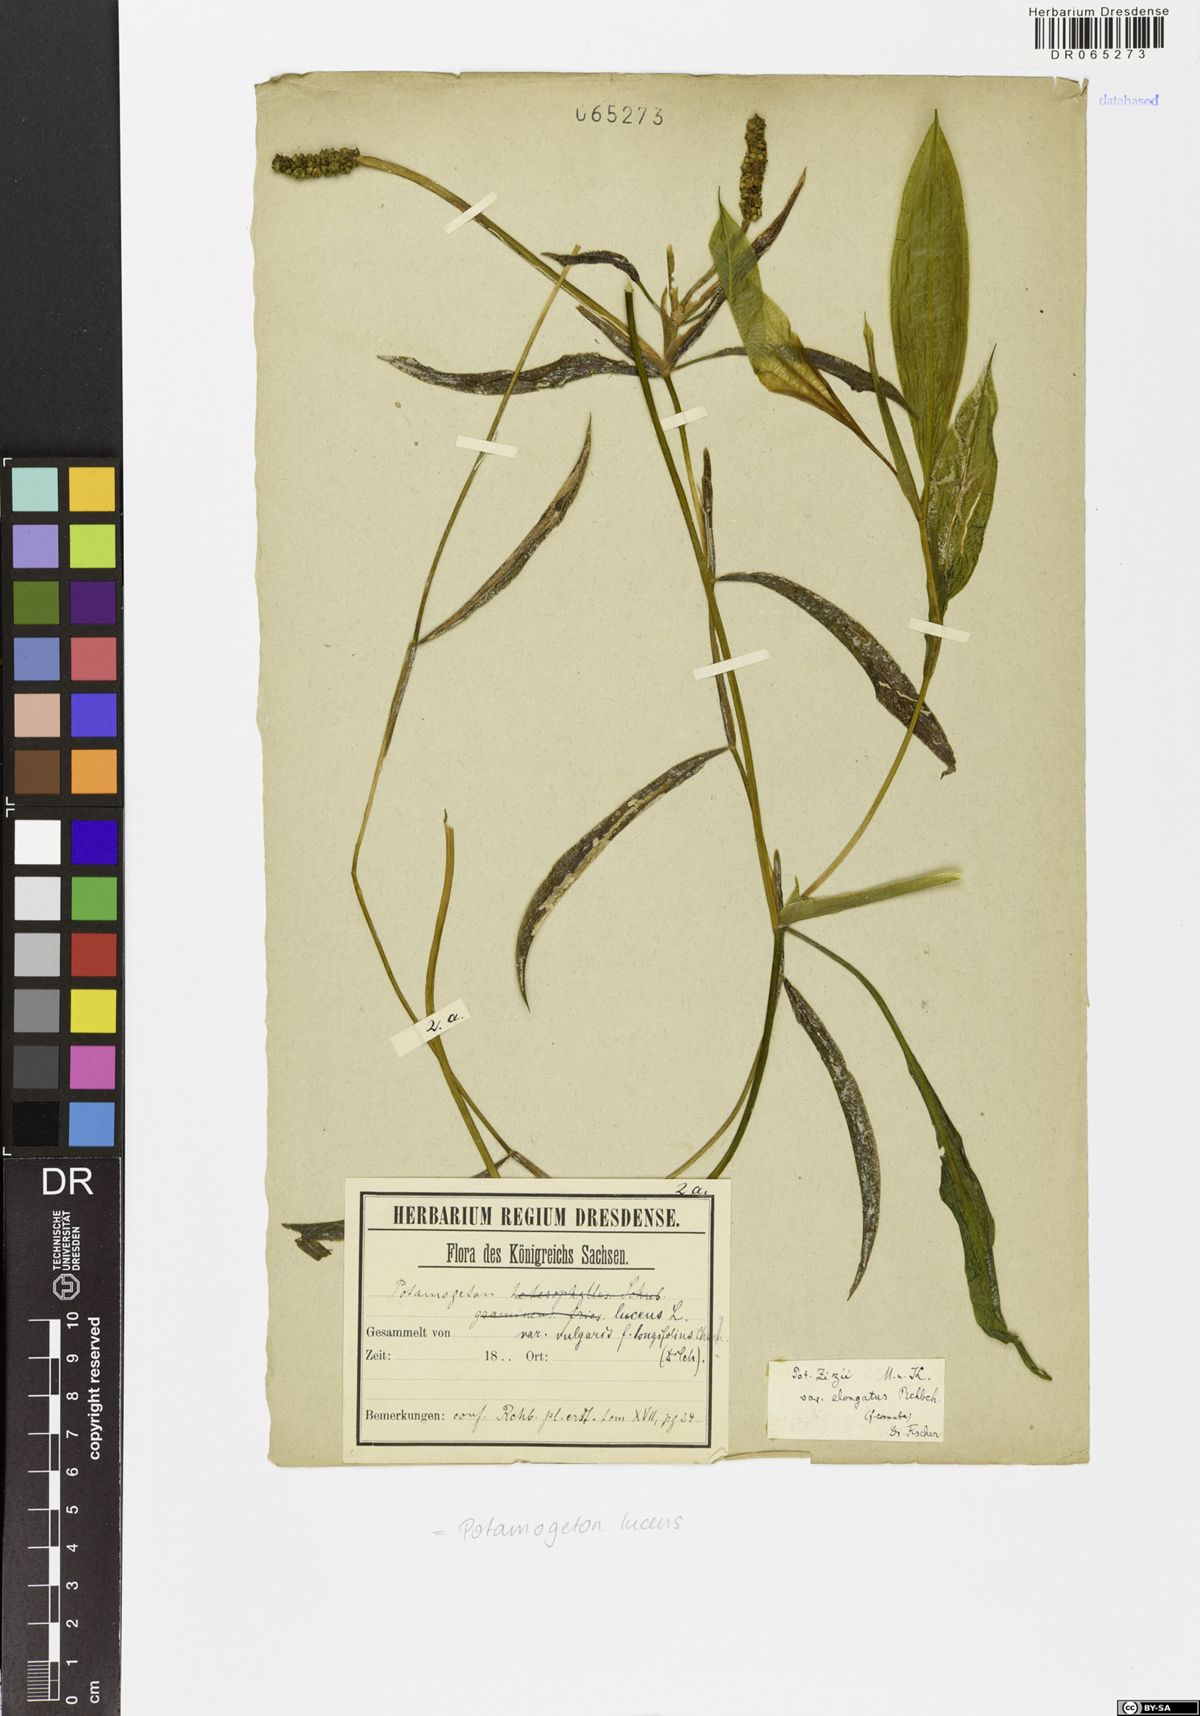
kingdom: Plantae
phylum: Tracheophyta
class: Liliopsida
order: Alismatales
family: Potamogetonaceae
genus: Potamogeton
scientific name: Potamogeton lucens
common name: Shining pondweed
